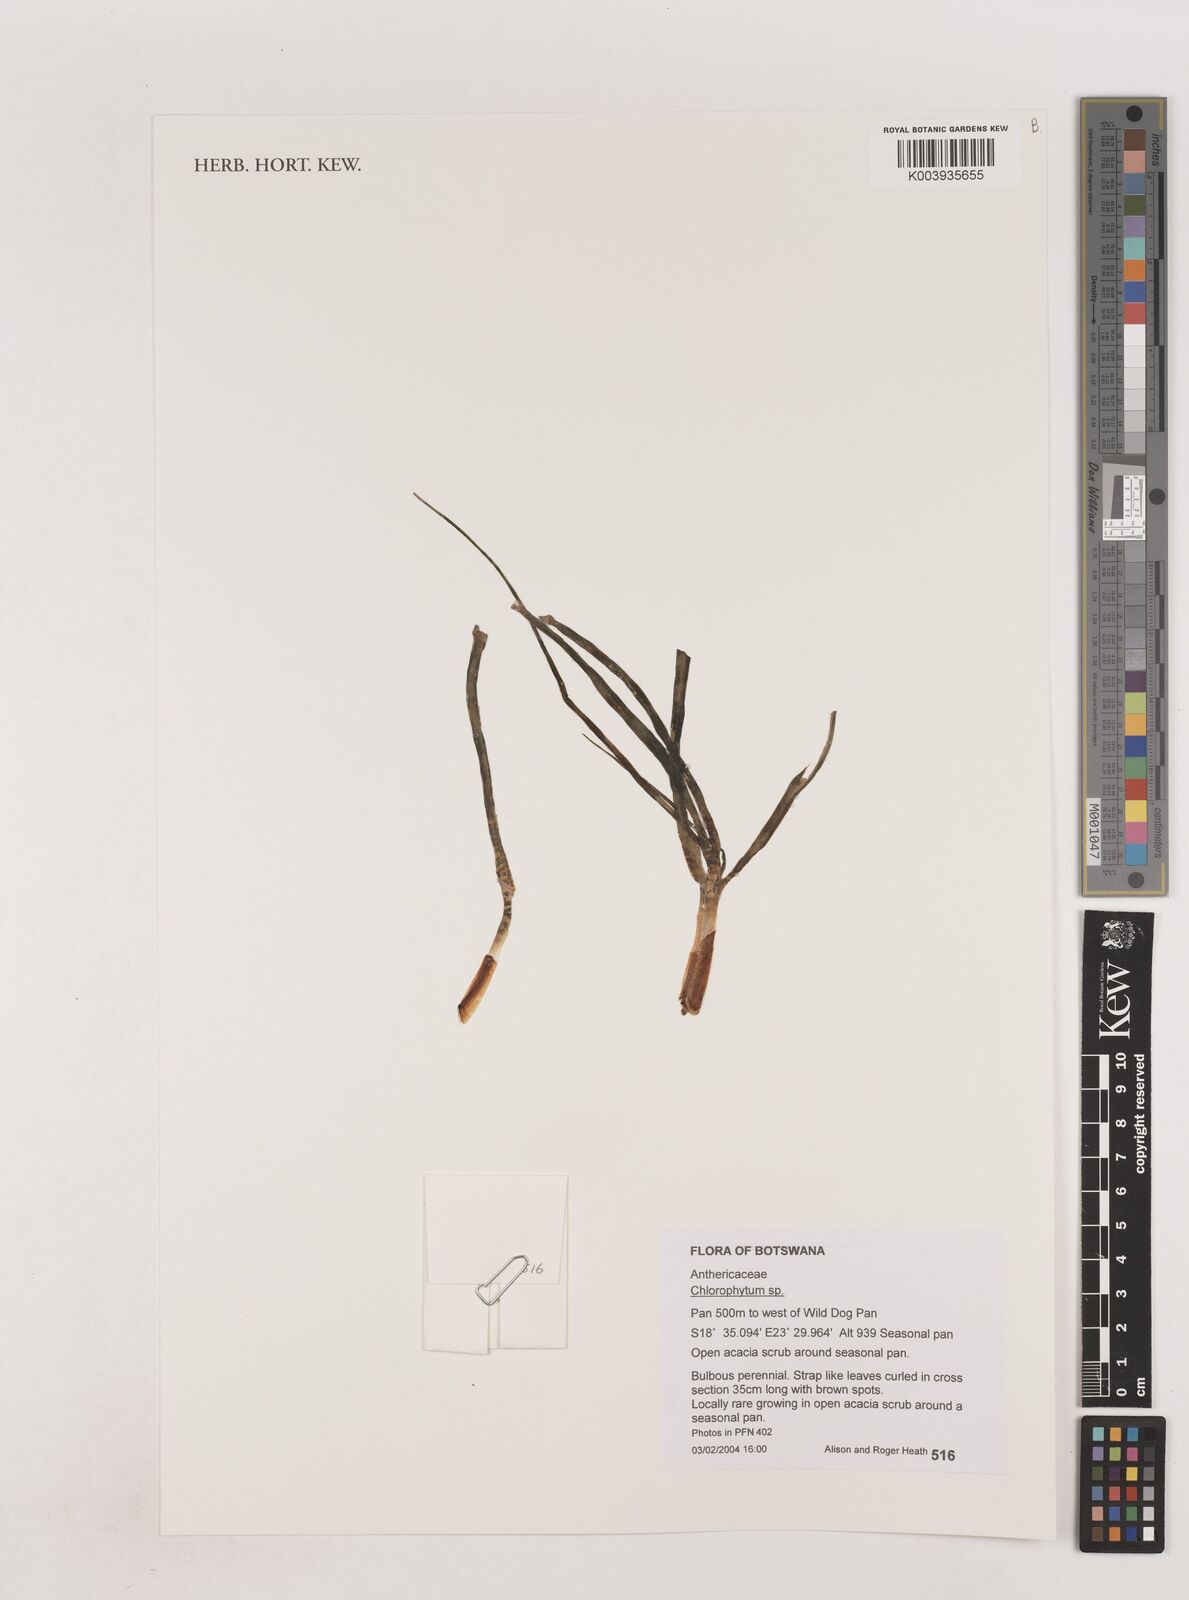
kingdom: Plantae
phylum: Tracheophyta
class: Liliopsida
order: Asparagales
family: Asparagaceae
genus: Chlorophytum
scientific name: Chlorophytum
